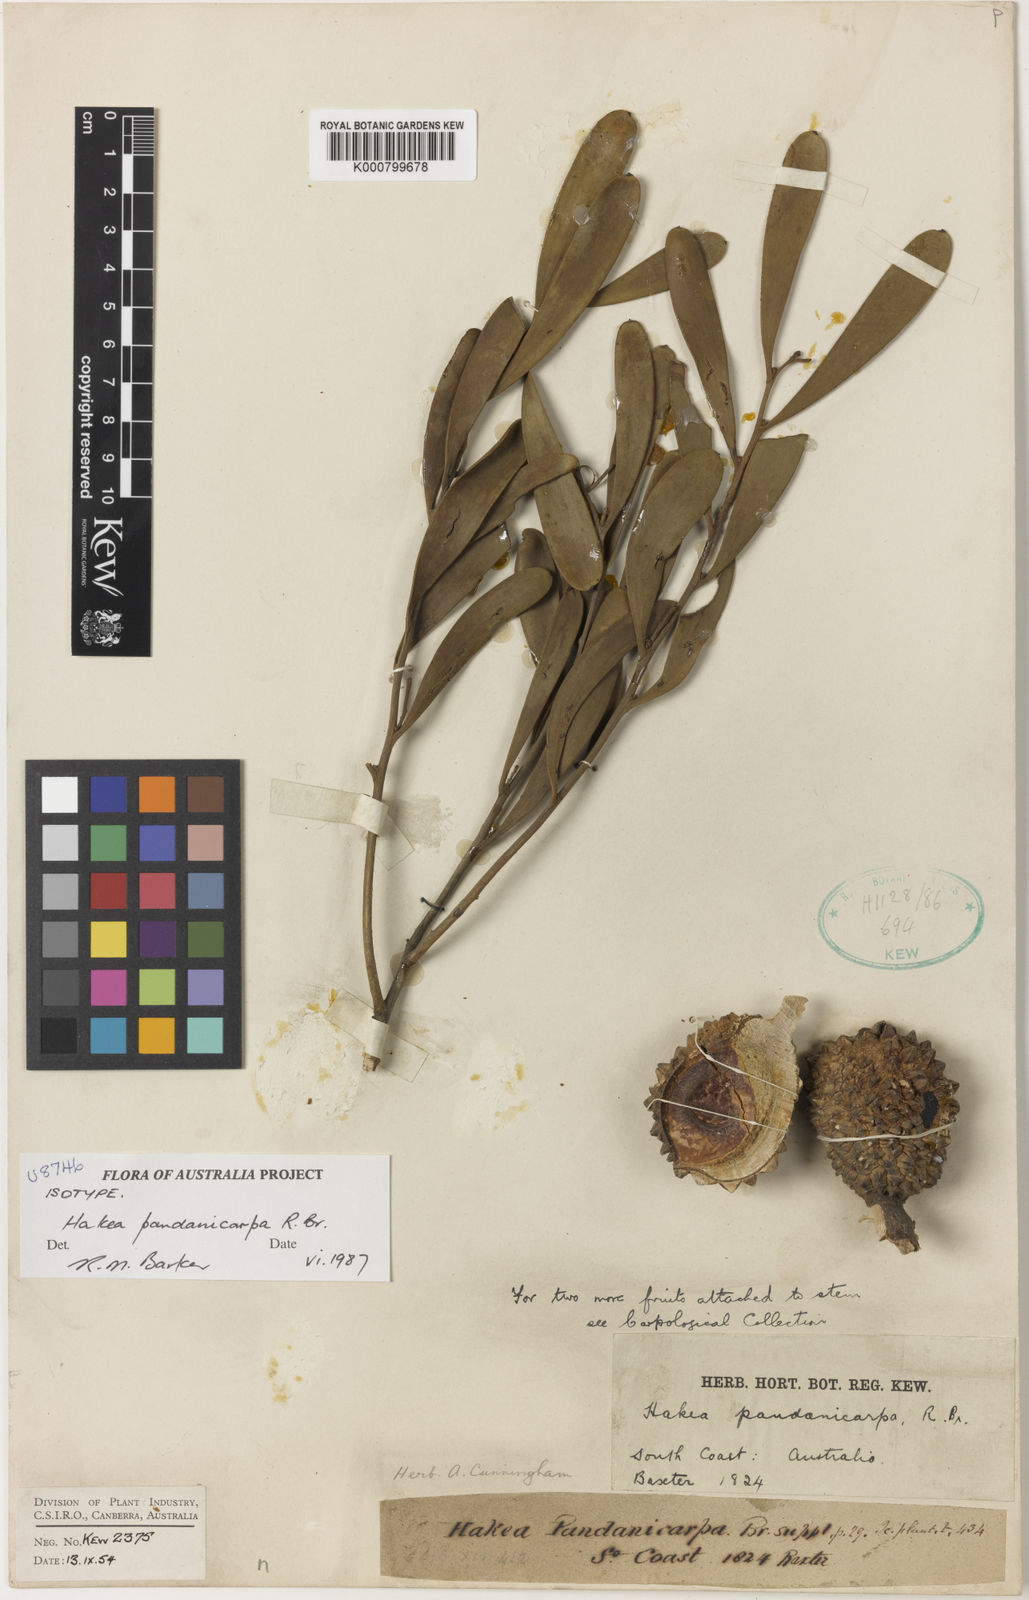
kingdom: Plantae
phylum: Tracheophyta
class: Magnoliopsida
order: Proteales
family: Proteaceae
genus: Hakea
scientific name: Hakea pandanicarpa
